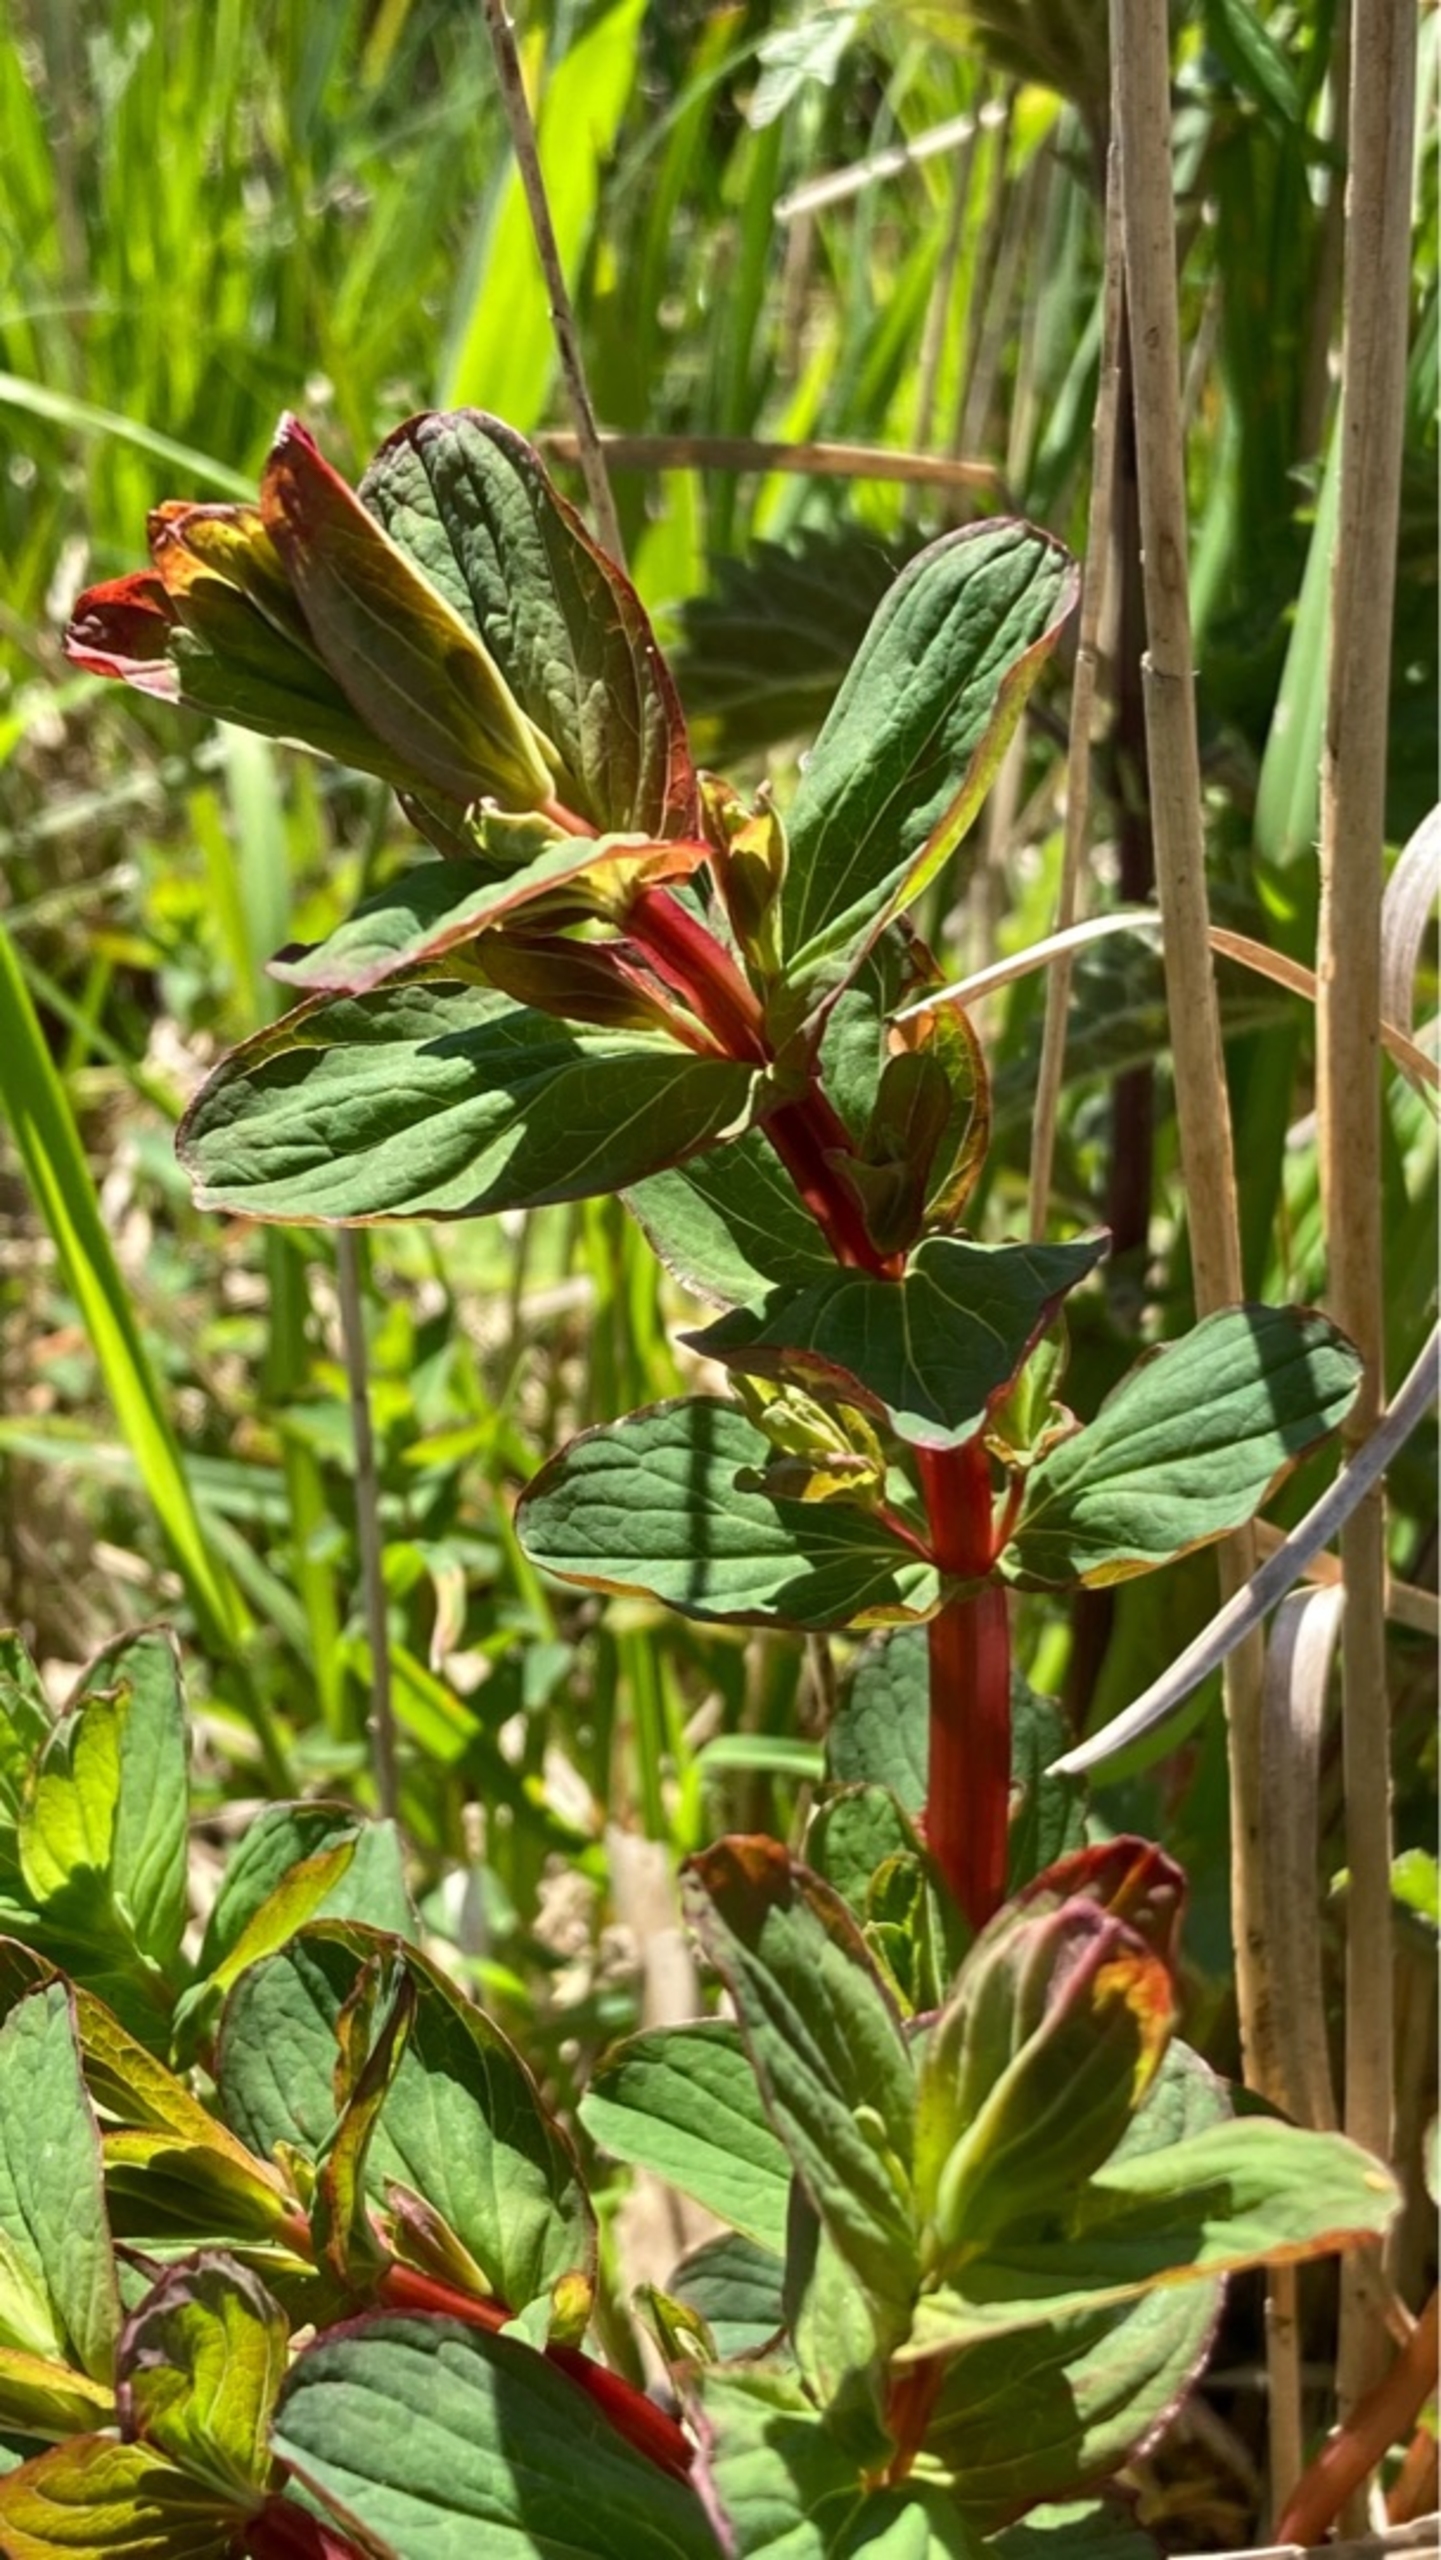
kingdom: Plantae
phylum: Tracheophyta
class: Magnoliopsida
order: Malpighiales
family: Hypericaceae
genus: Hypericum
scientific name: Hypericum tetrapterum
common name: Vinget perikon
